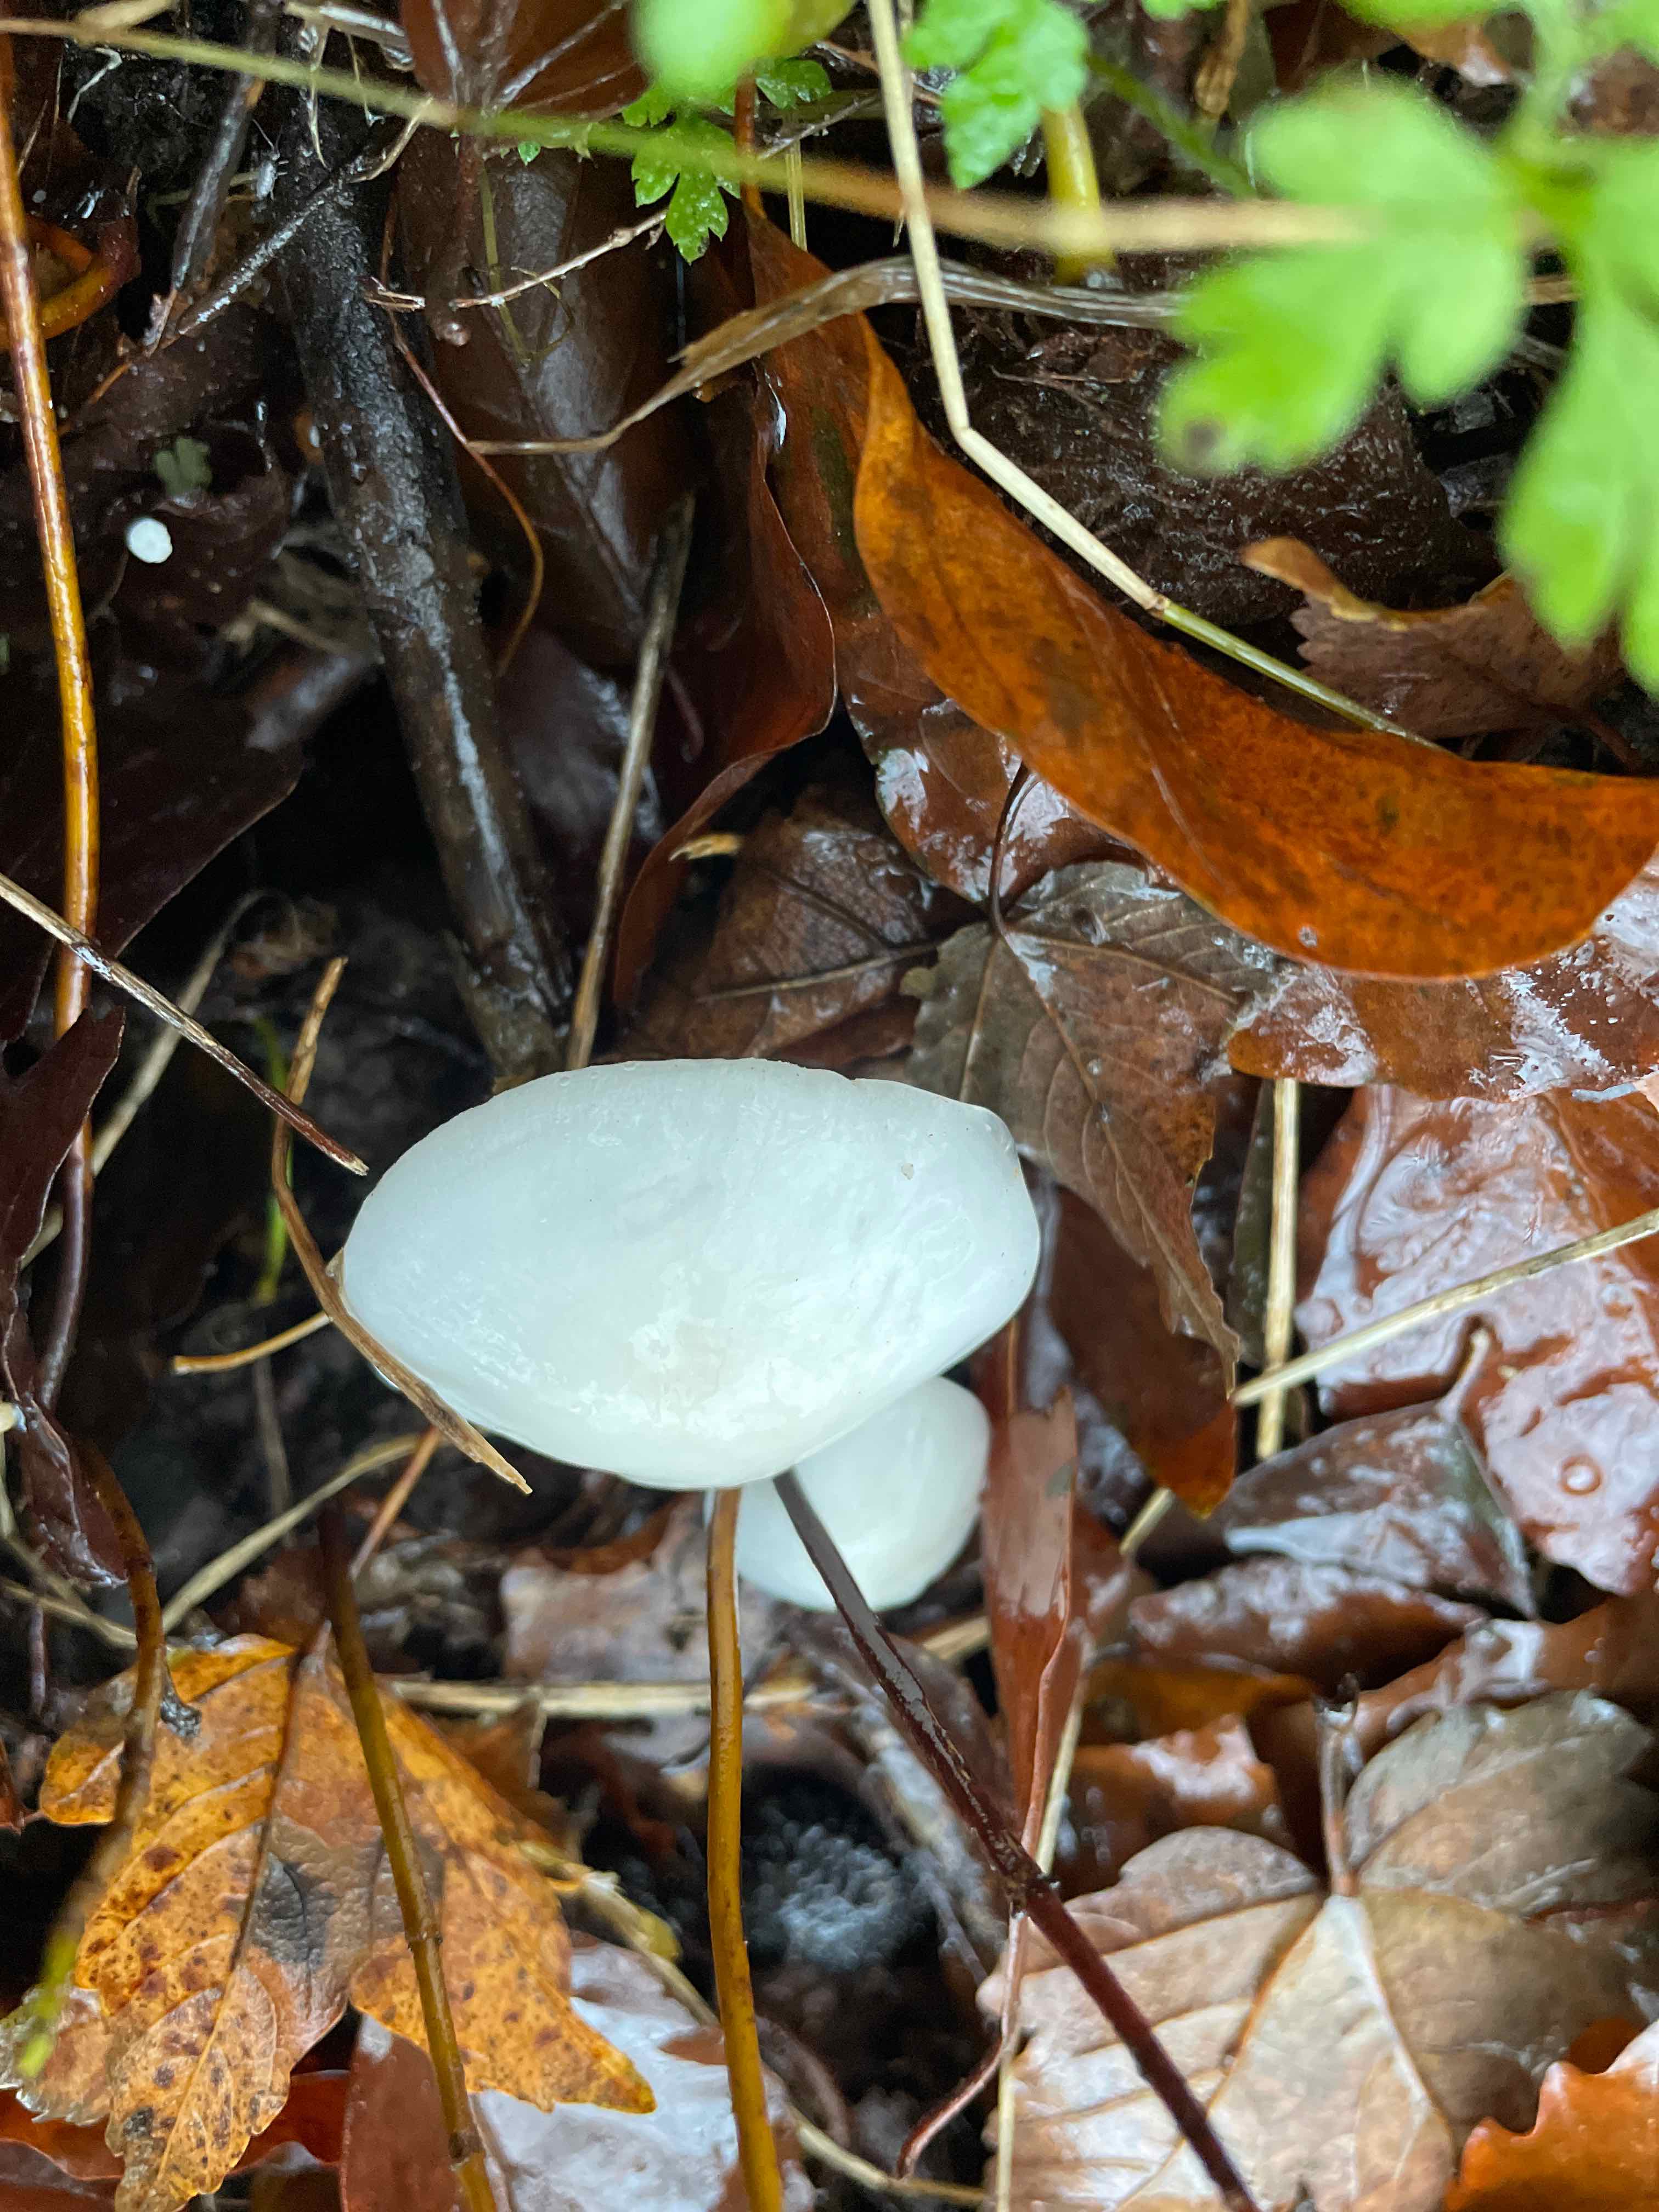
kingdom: Fungi
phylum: Basidiomycota
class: Agaricomycetes
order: Agaricales
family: Hygrophoraceae
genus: Hygrophorus
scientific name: Hygrophorus eburneus
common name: elfenbens-sneglehat
